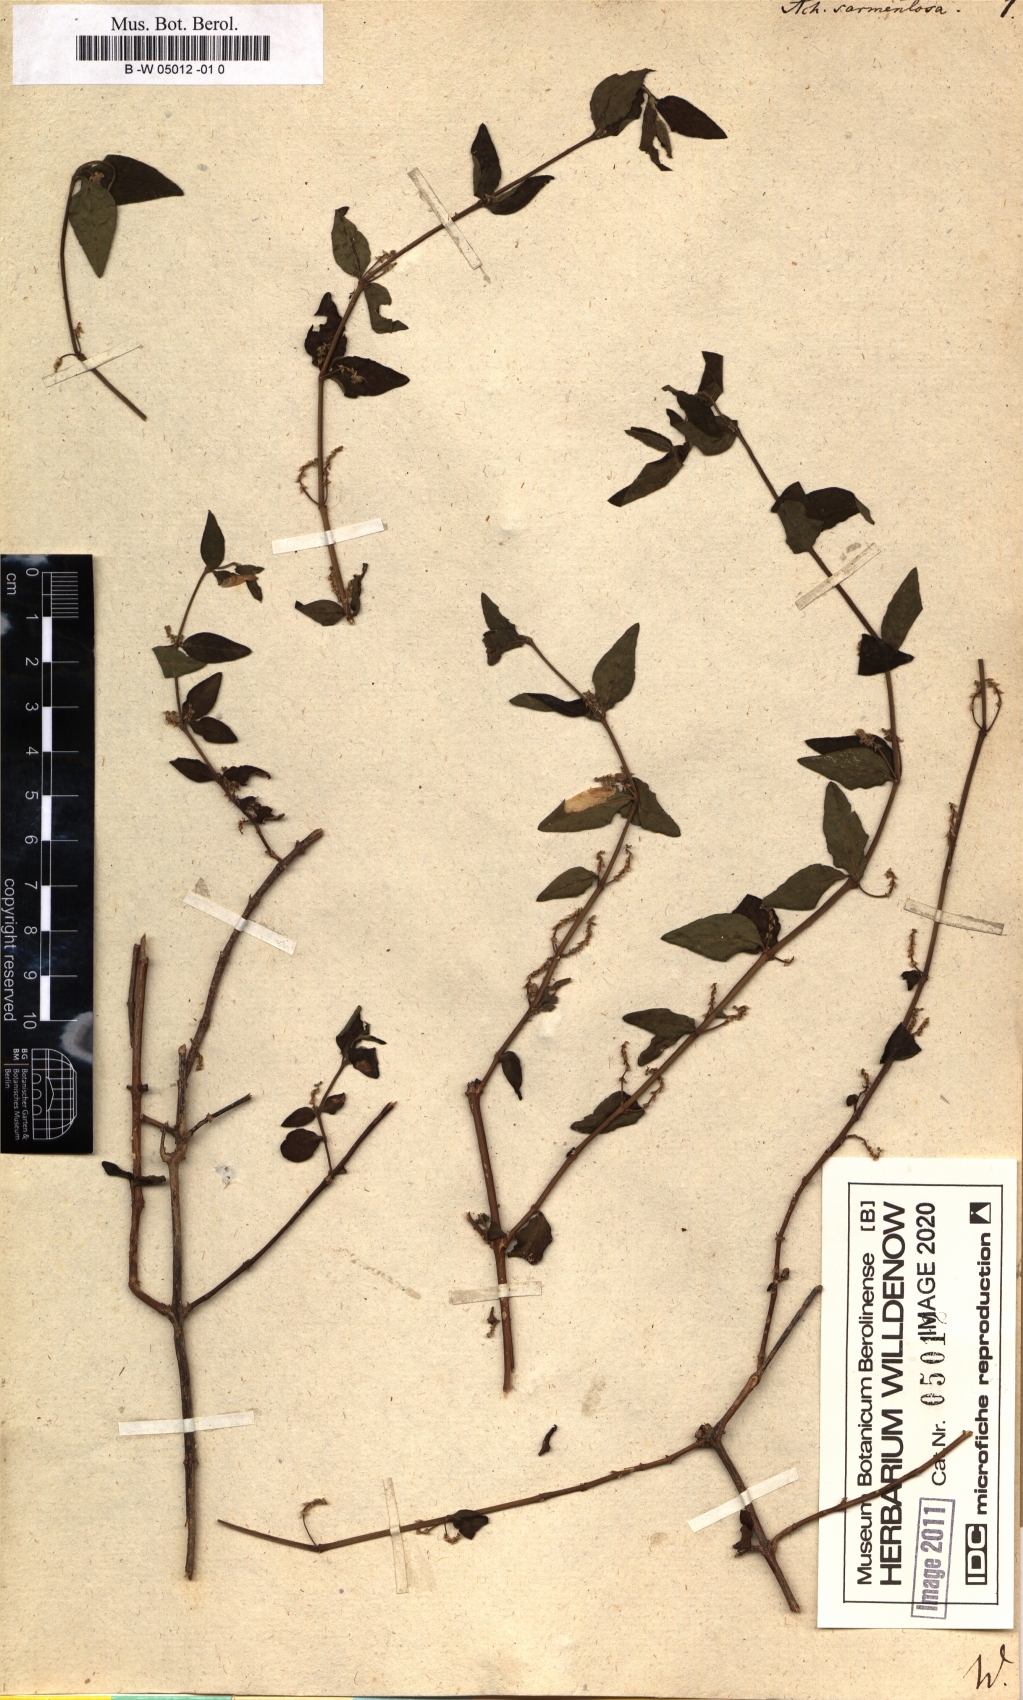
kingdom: Plantae
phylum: Tracheophyta
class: Magnoliopsida
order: Caryophyllales
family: Amaranthaceae
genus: Achyranthes
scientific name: Achyranthes sarmentosa
